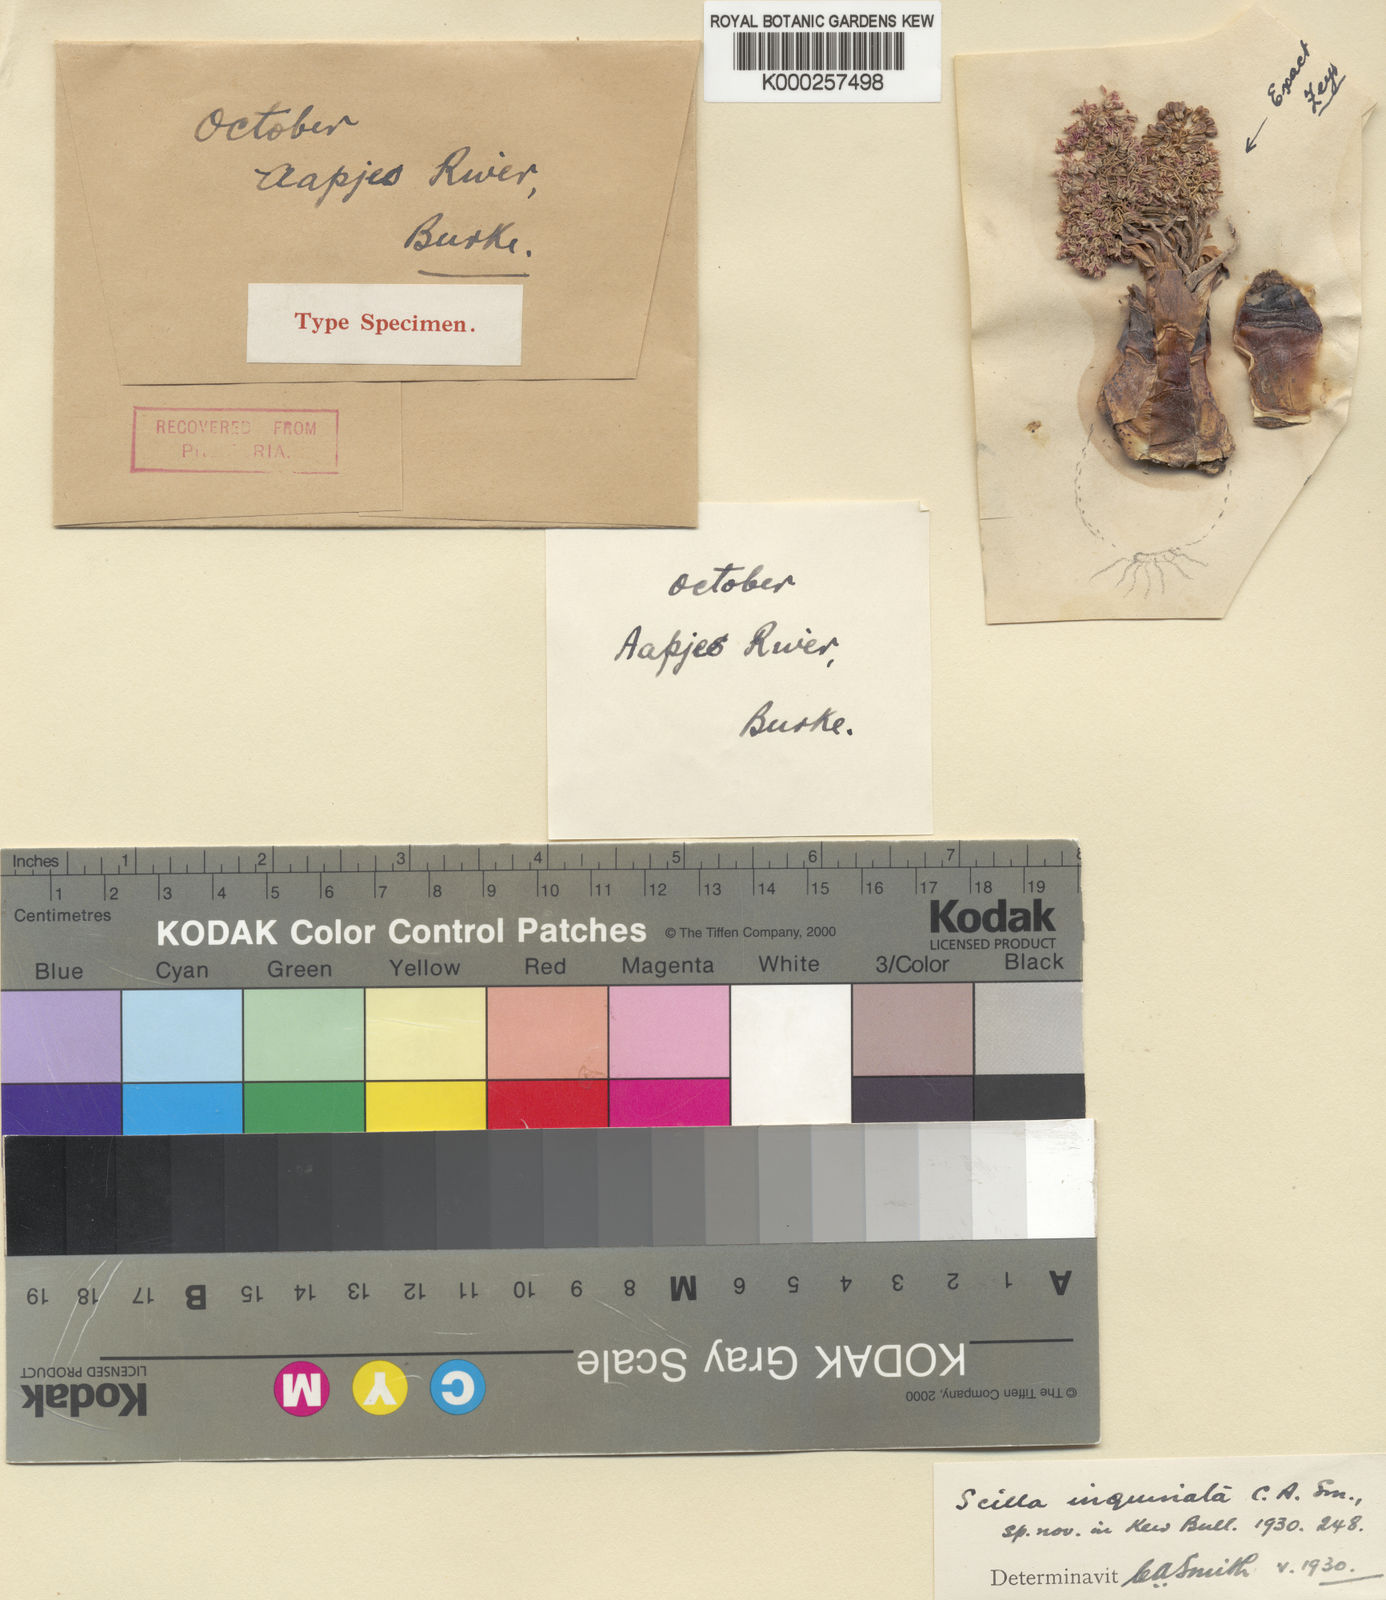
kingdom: Plantae
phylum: Tracheophyta
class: Liliopsida
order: Asparagales
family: Asparagaceae
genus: Ledebouria
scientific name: Ledebouria inquinata
